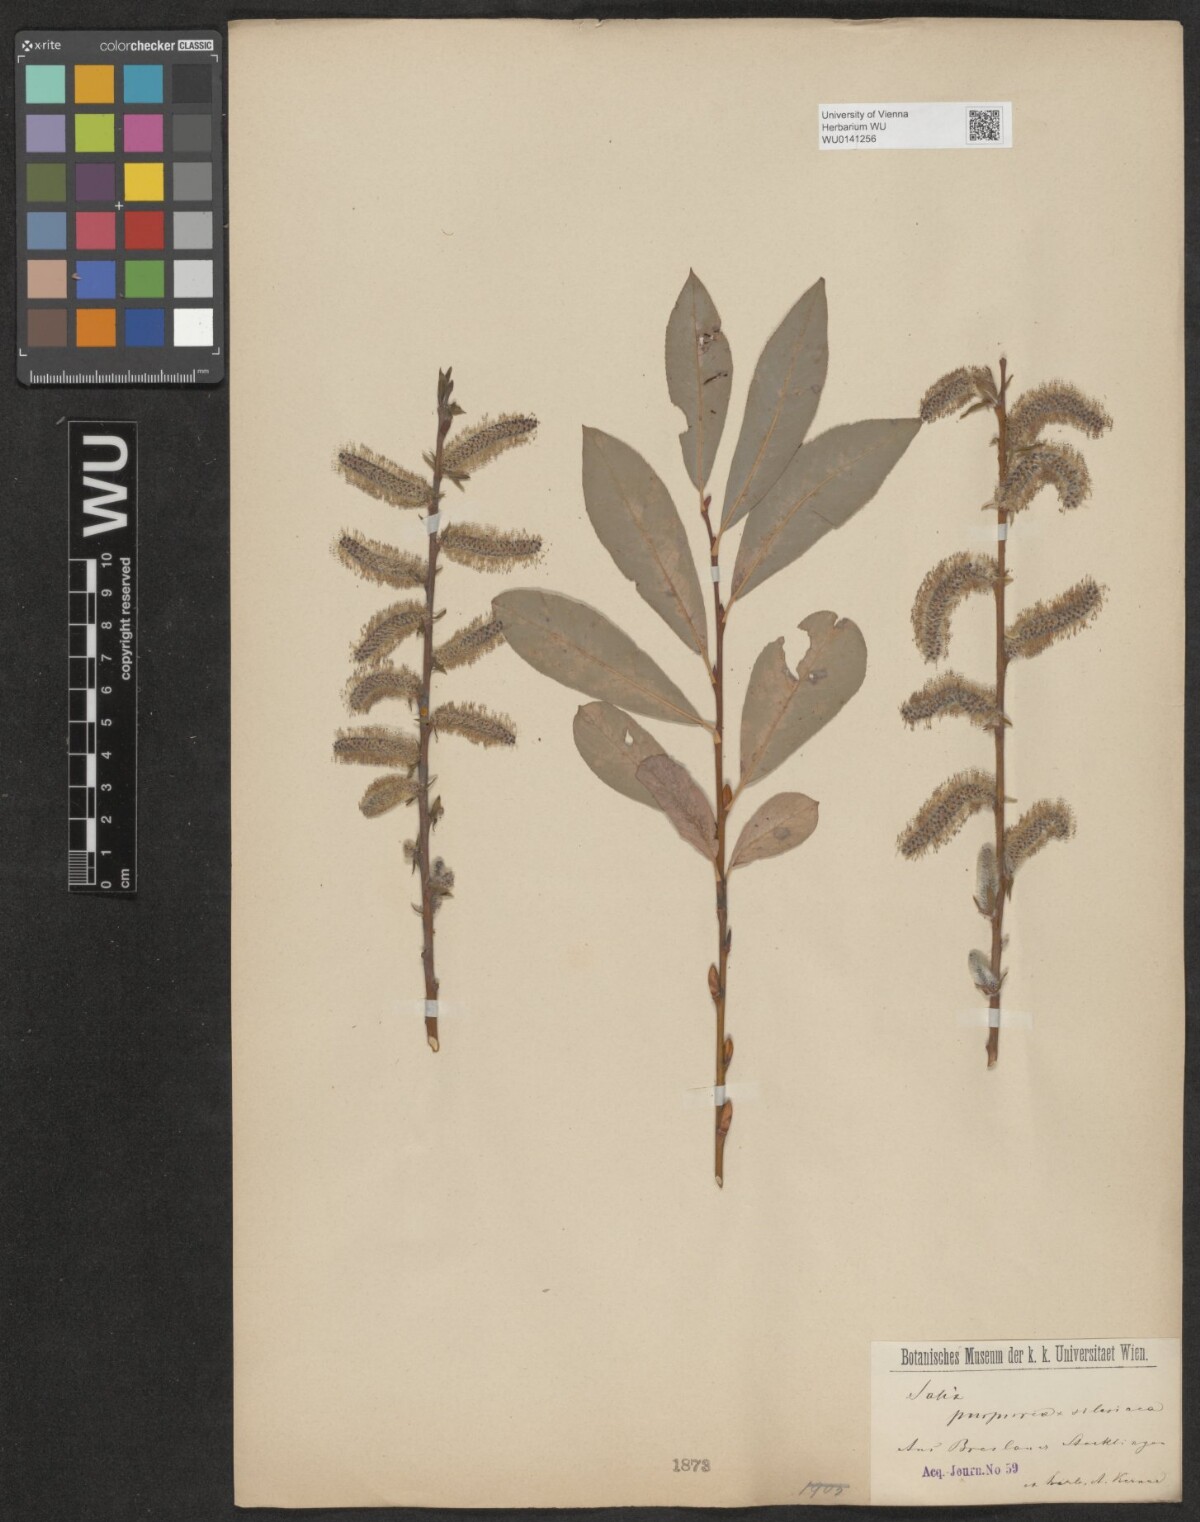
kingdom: Plantae
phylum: Tracheophyta
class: Magnoliopsida
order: Malpighiales
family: Salicaceae
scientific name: Salicaceae
